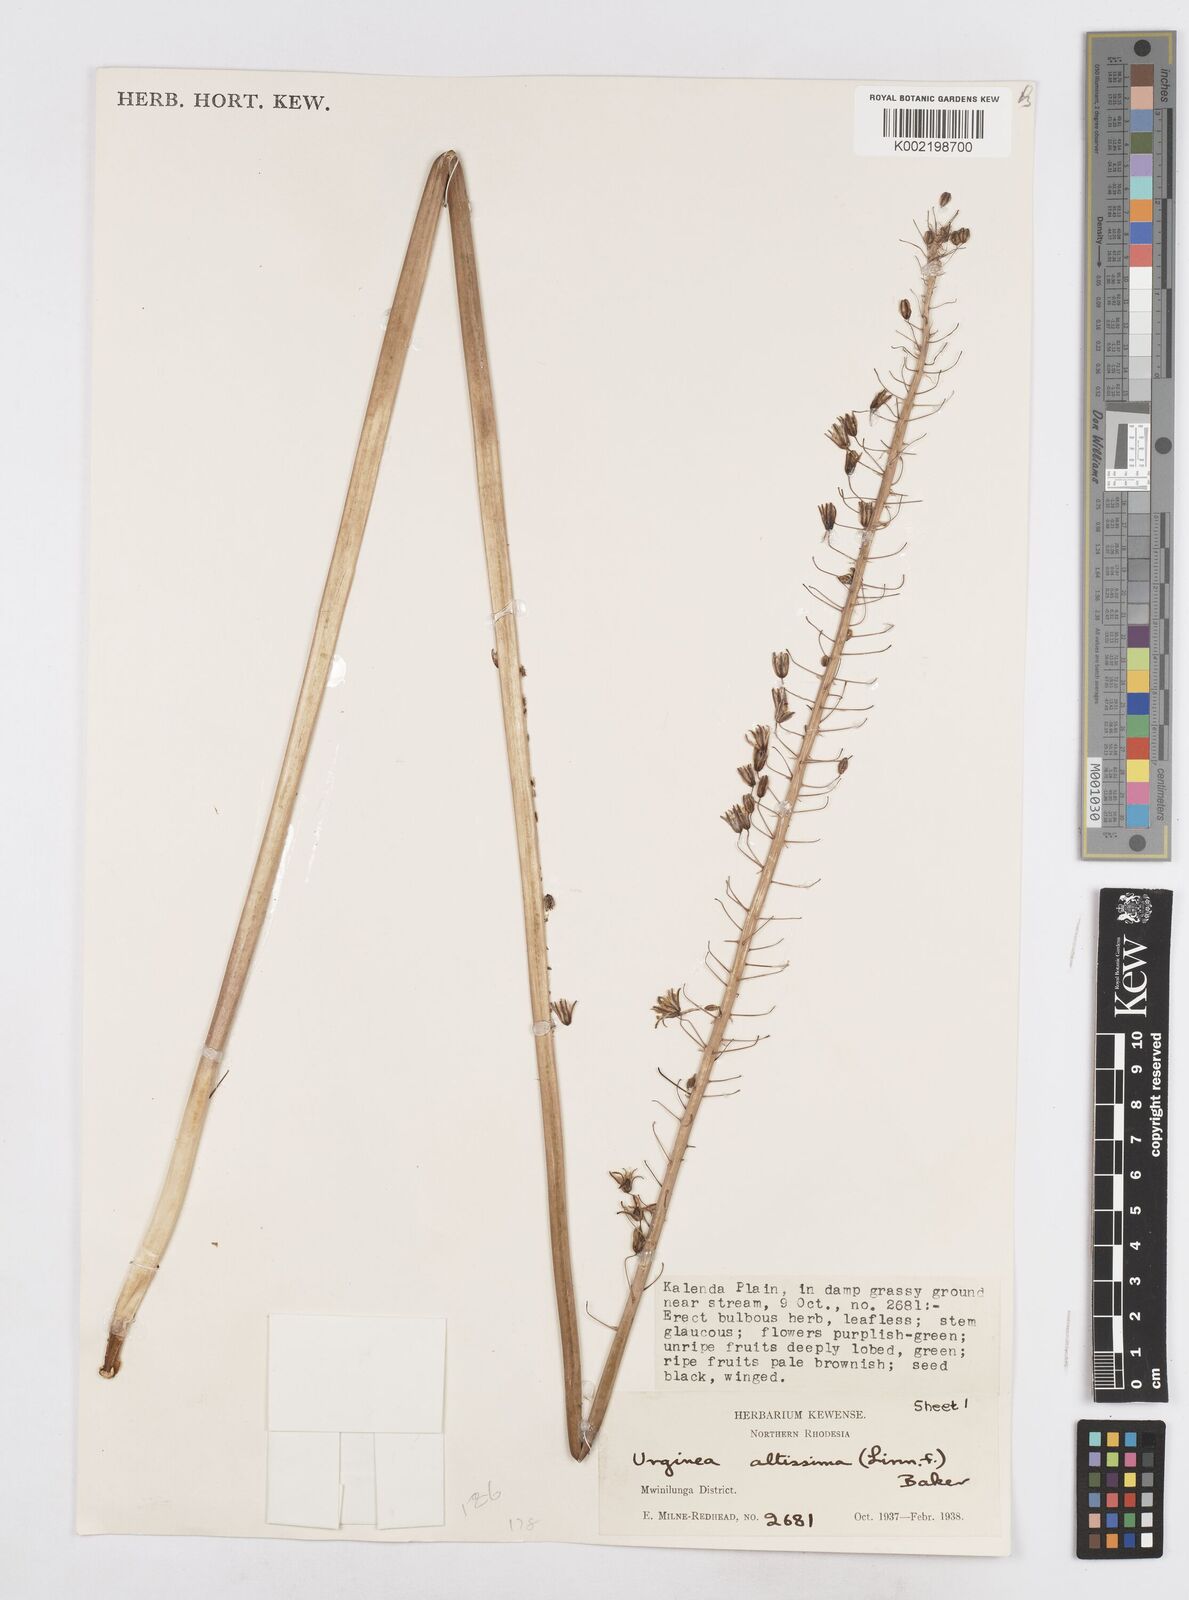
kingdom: Plantae
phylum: Tracheophyta
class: Liliopsida
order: Asparagales
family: Asparagaceae
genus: Drimia
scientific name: Drimia
